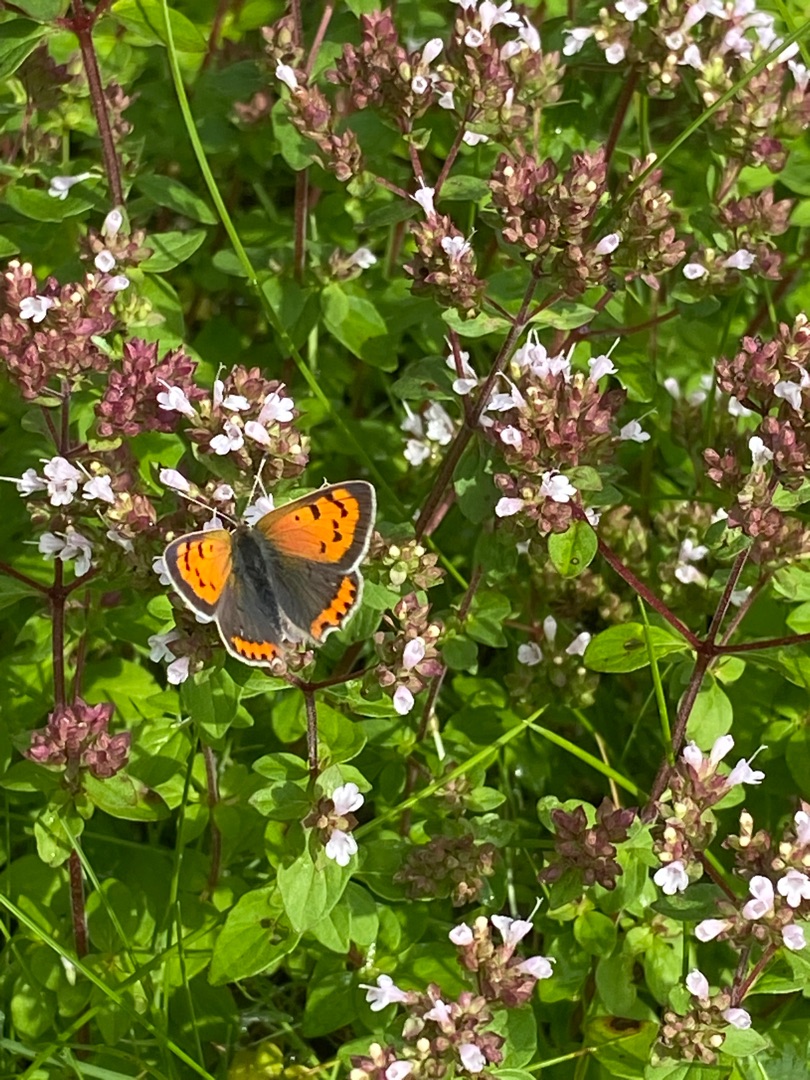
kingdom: Animalia
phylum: Arthropoda
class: Insecta
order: Lepidoptera
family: Lycaenidae
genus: Lycaena
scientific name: Lycaena phlaeas
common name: Lille ildfugl
